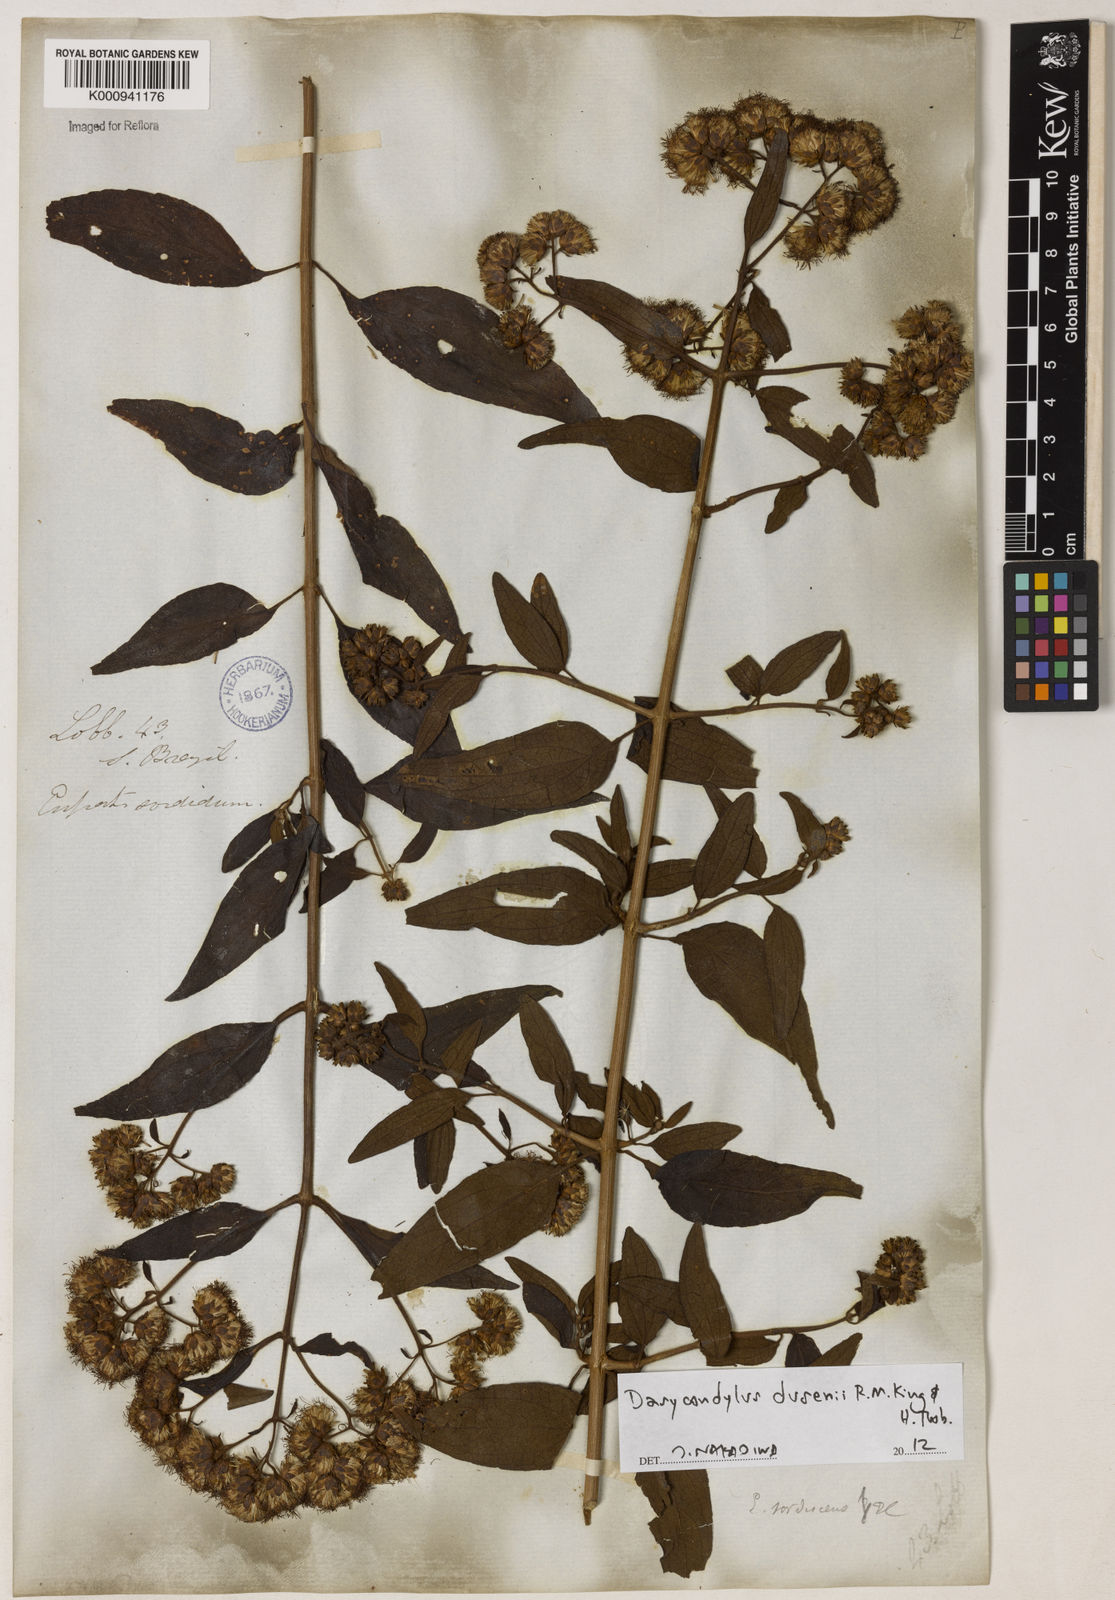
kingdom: Plantae
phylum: Tracheophyta
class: Magnoliopsida
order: Asterales
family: Asteraceae
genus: Dasycondylus
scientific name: Dasycondylus dusenii
